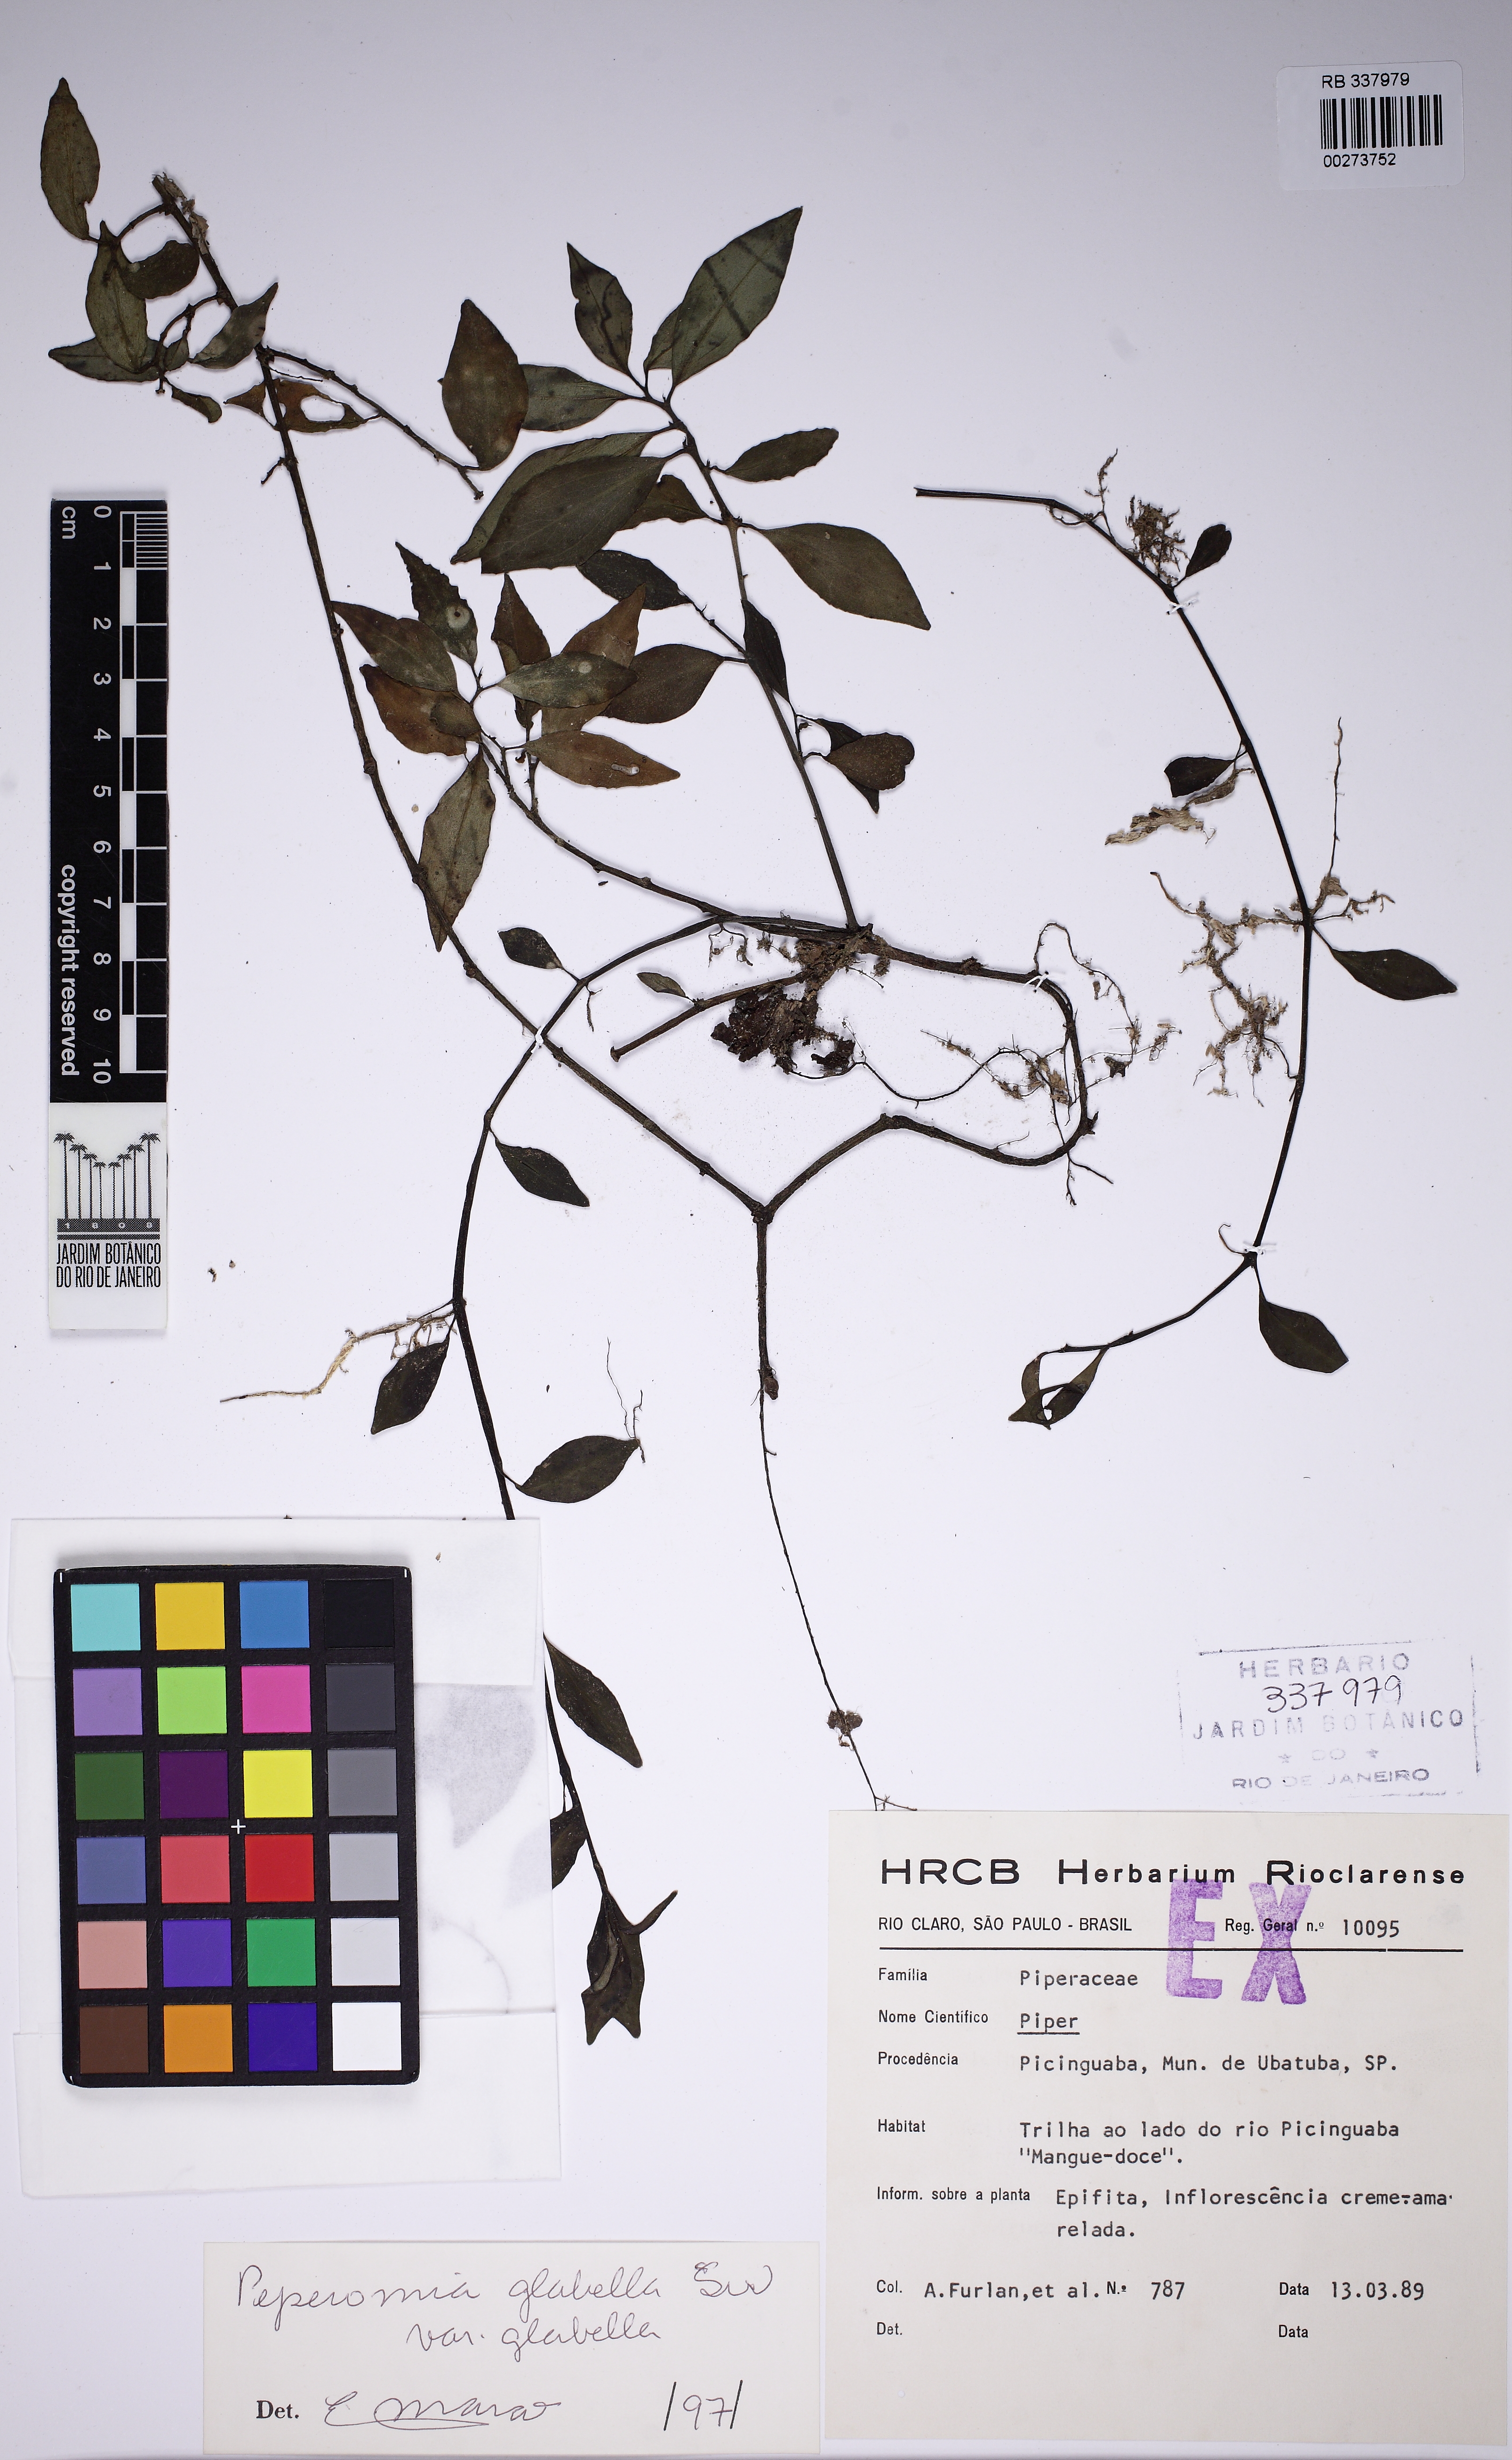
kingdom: Plantae
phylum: Tracheophyta
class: Magnoliopsida
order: Piperales
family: Piperaceae
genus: Peperomia
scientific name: Peperomia glabella
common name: Cypress peperomia
